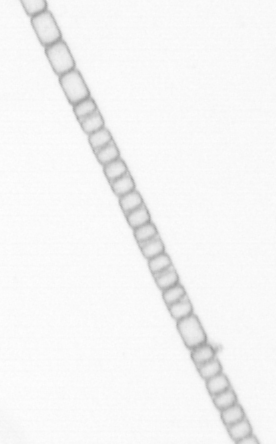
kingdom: Chromista
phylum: Ochrophyta
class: Bacillariophyceae
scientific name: Bacillariophyceae
